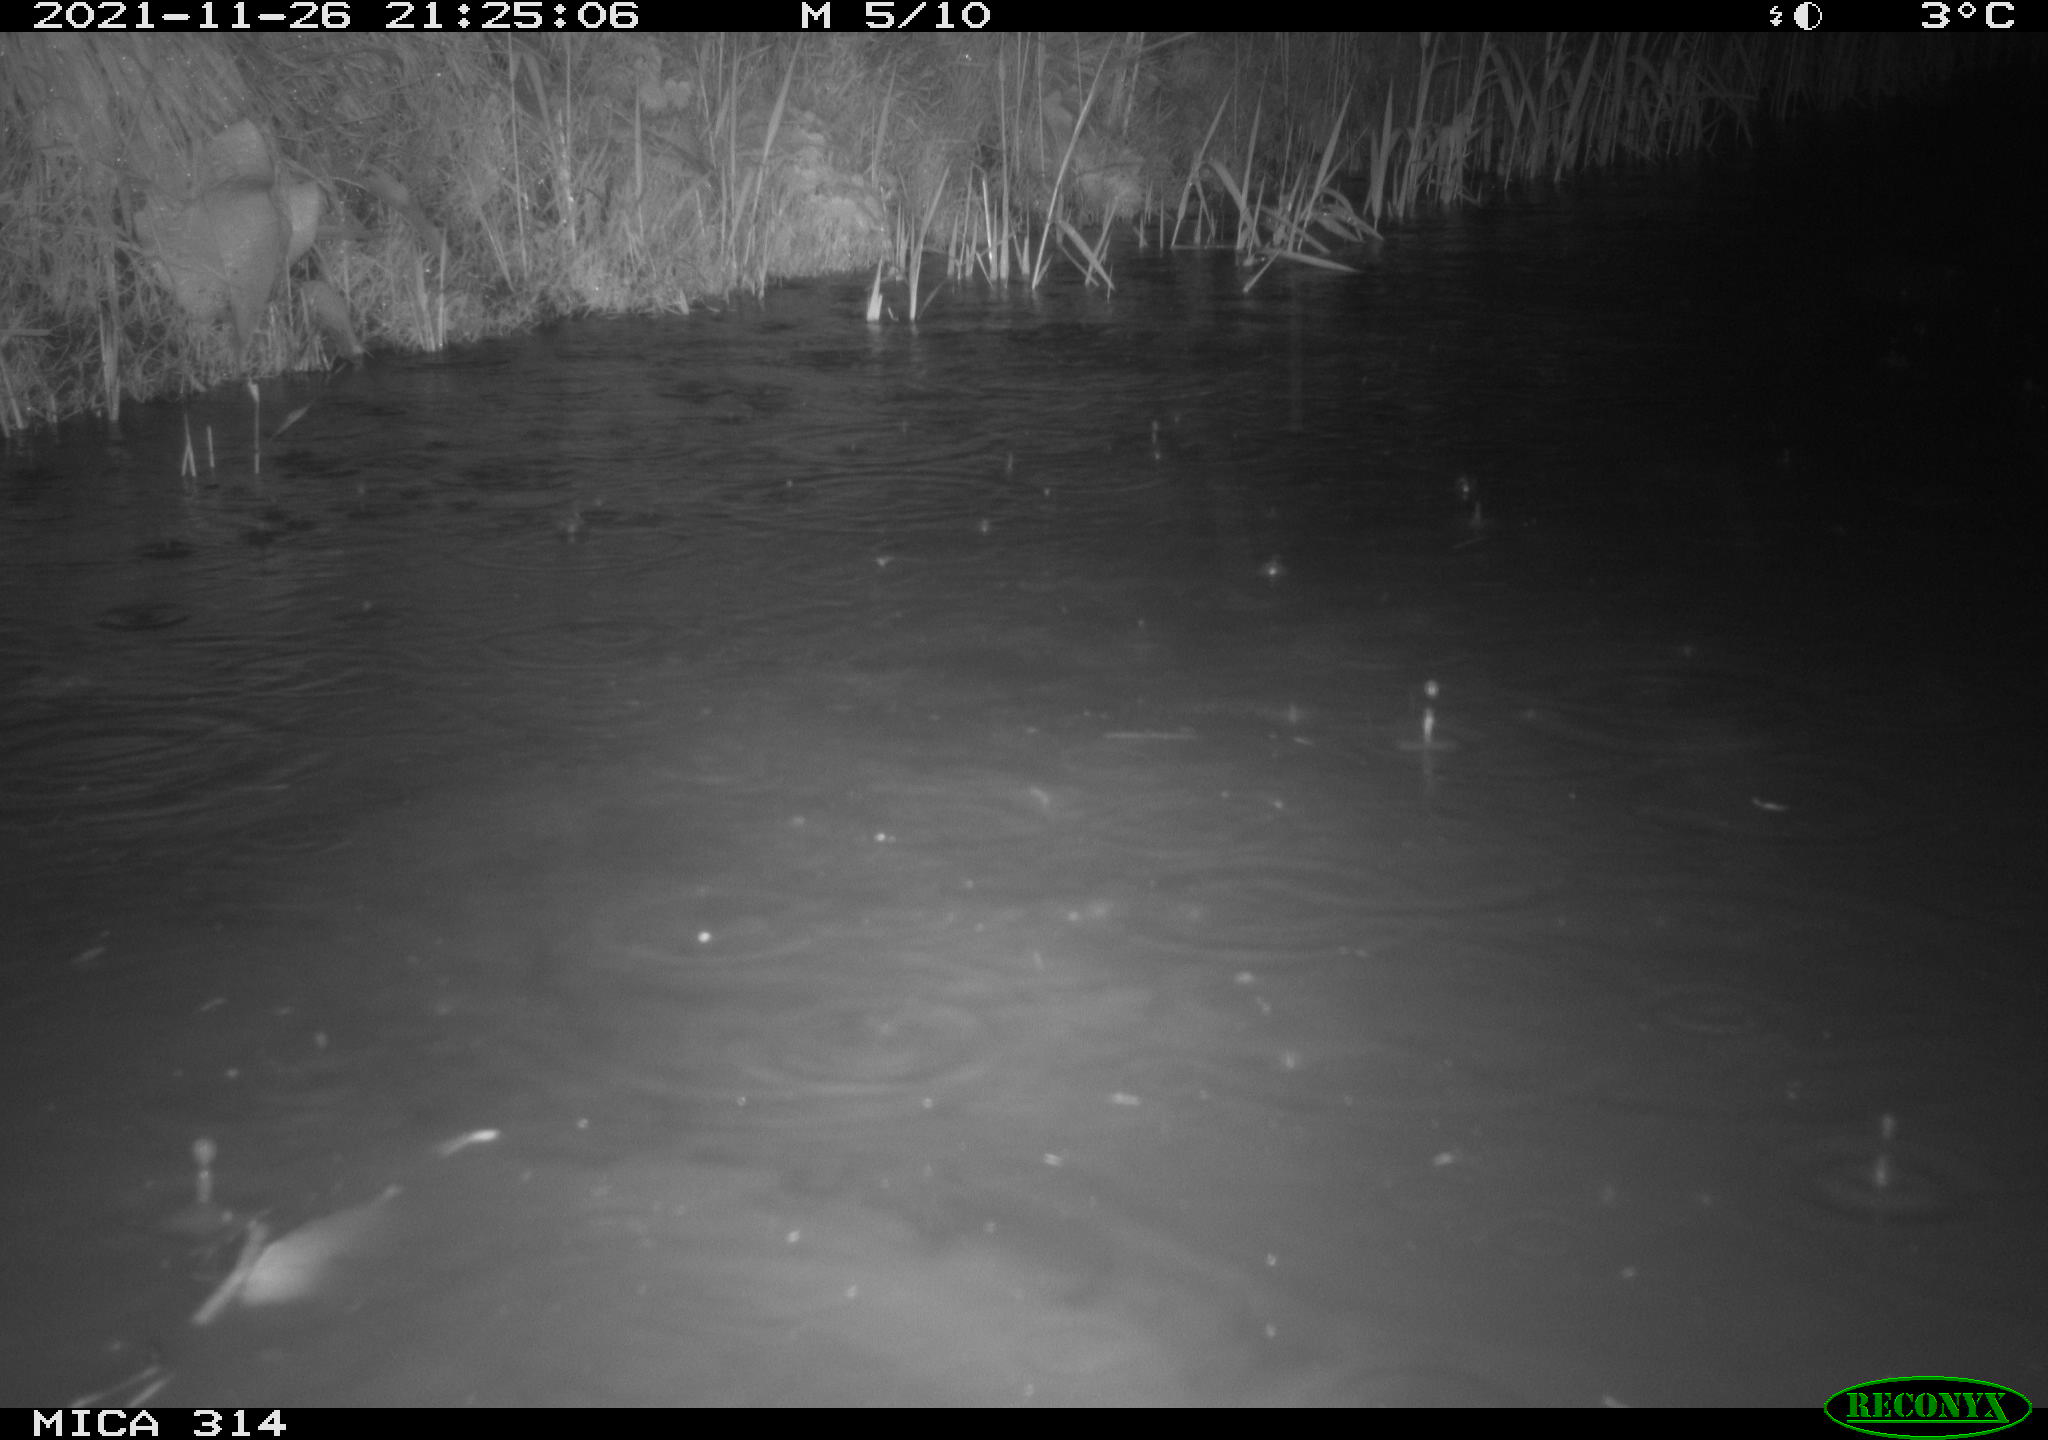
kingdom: Animalia
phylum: Chordata
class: Aves
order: Gruiformes
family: Rallidae
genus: Gallinula
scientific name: Gallinula chloropus
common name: Common moorhen
